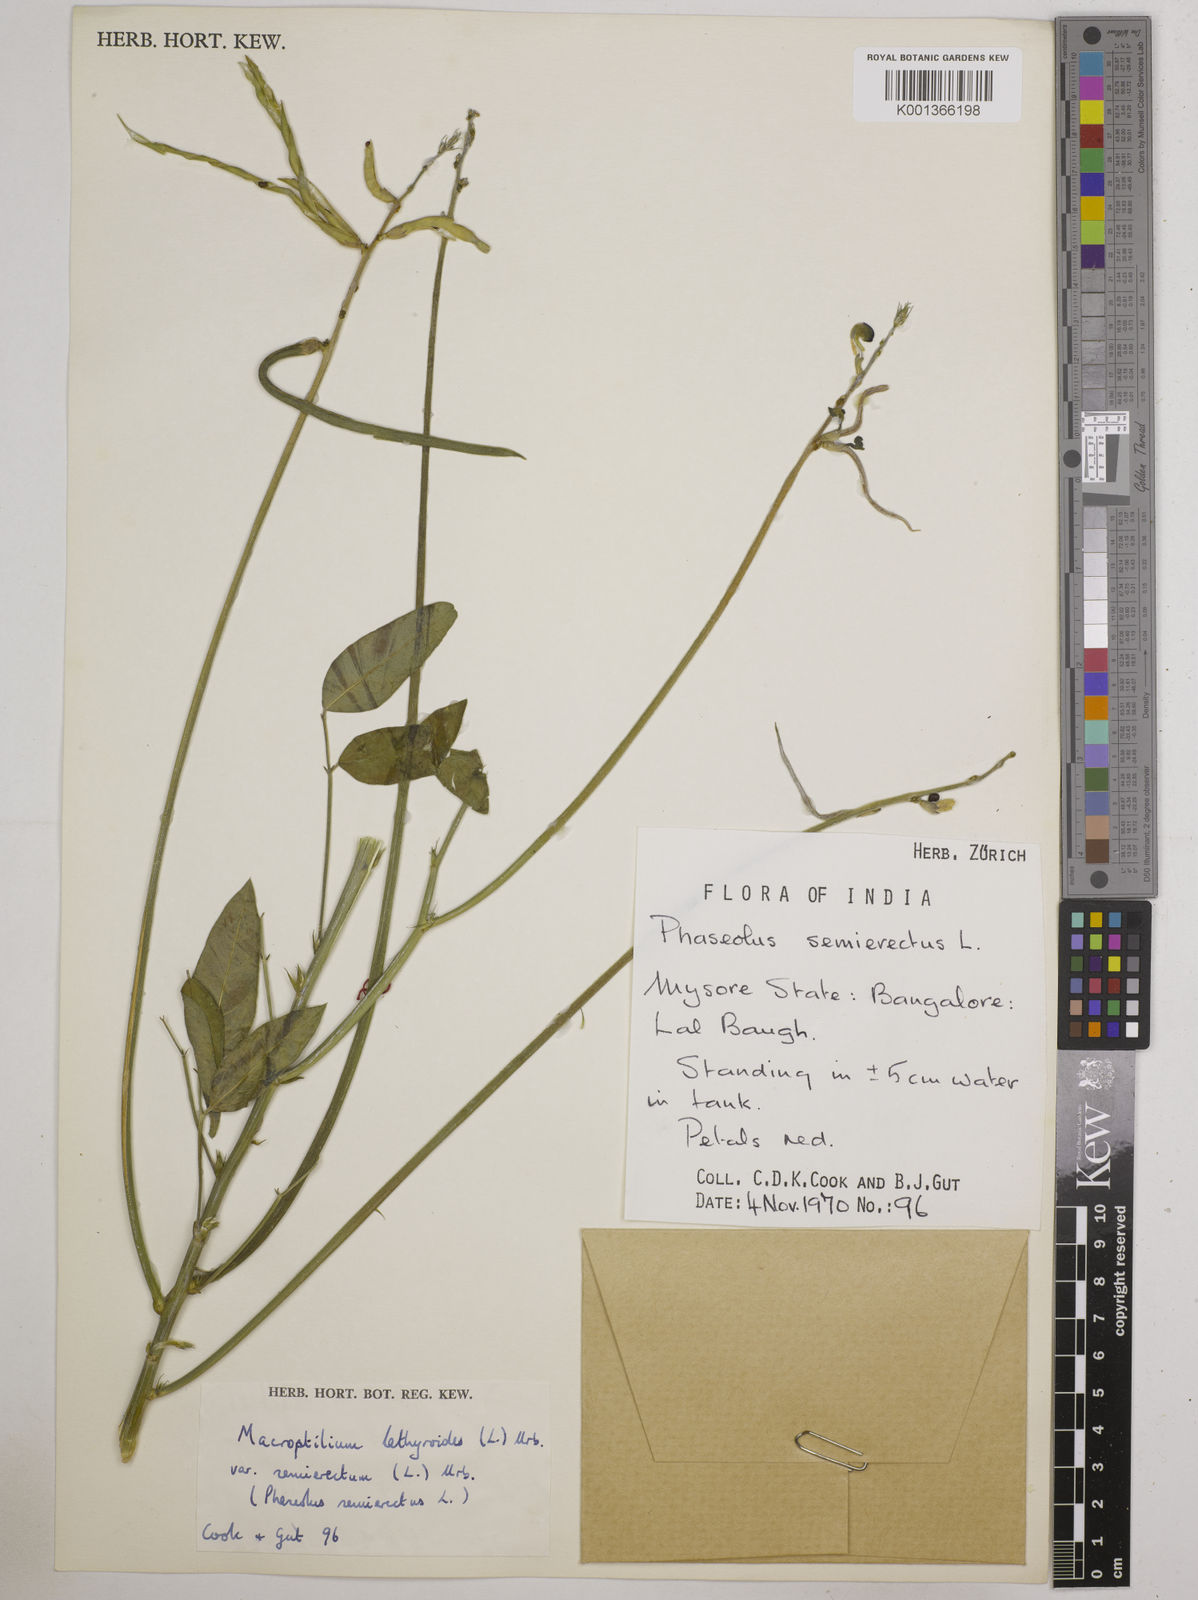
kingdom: Plantae
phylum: Tracheophyta
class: Magnoliopsida
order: Fabales
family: Fabaceae
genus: Macroptilium
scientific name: Macroptilium lathyroides
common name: Wild bushbean
